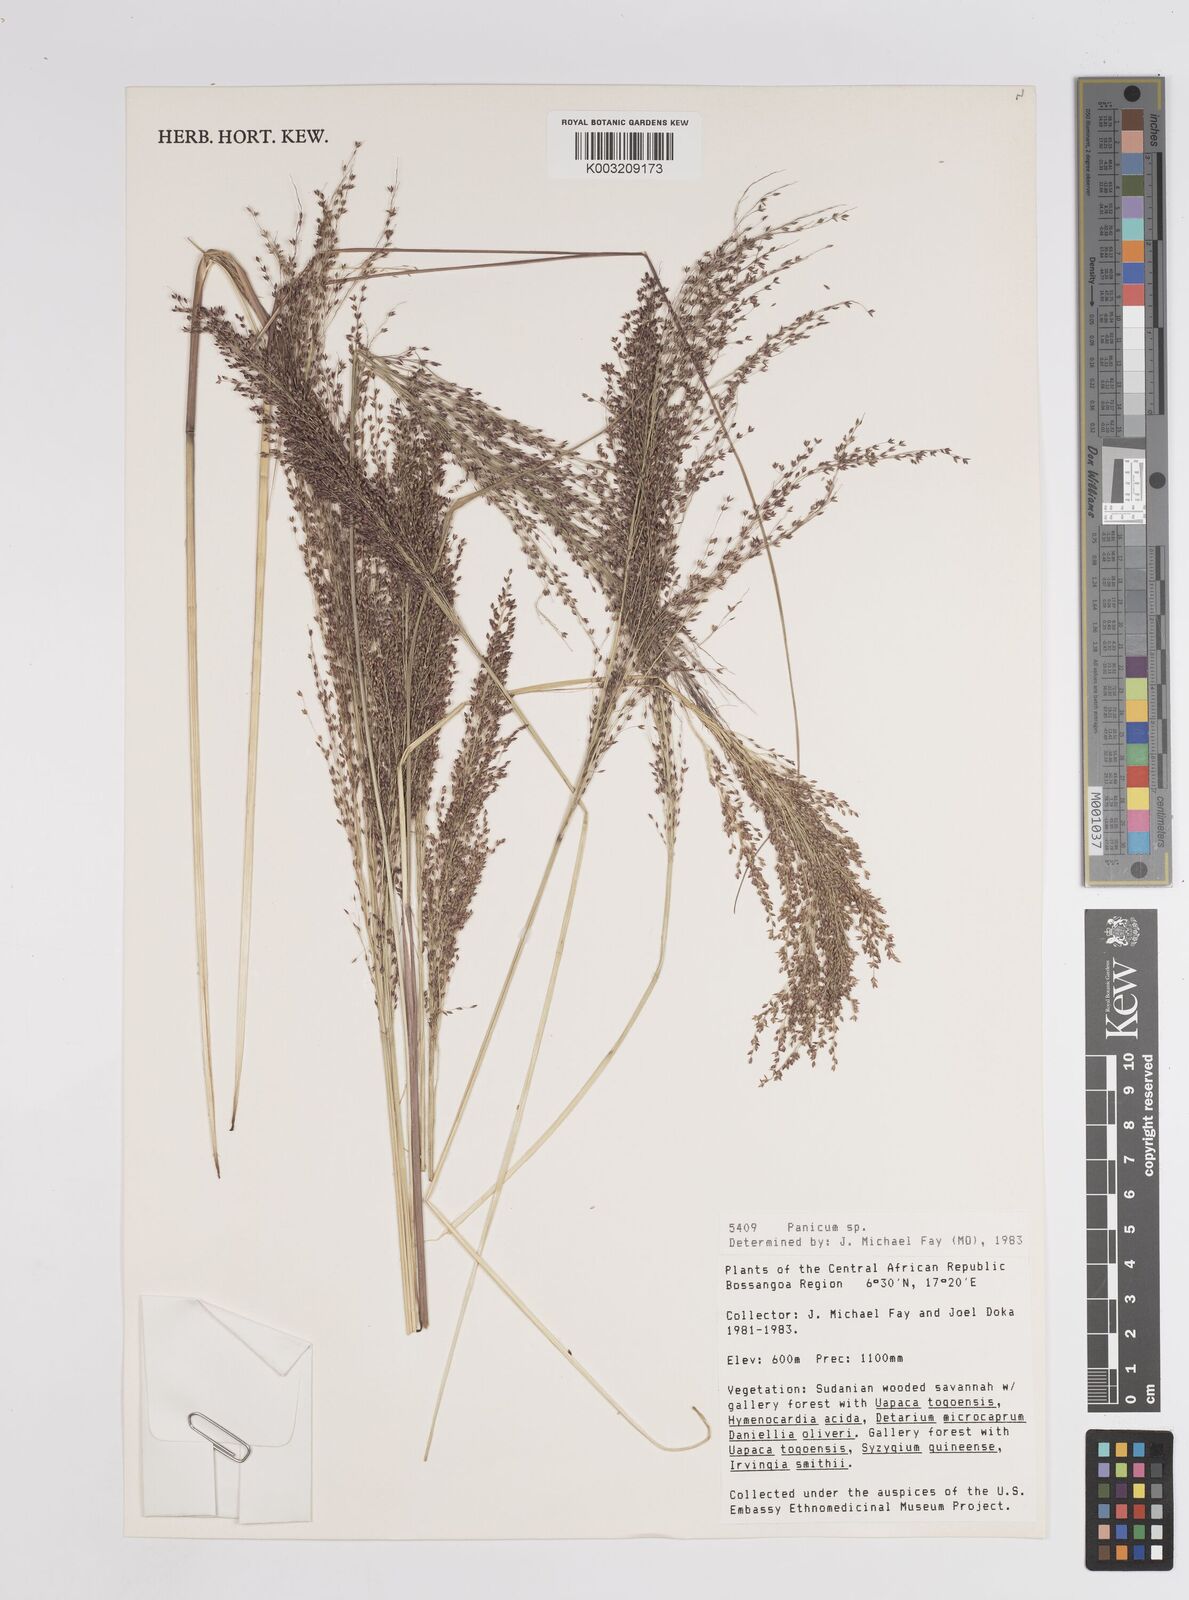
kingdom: Plantae
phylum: Tracheophyta
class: Liliopsida
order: Poales
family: Poaceae
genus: Panicum
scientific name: Panicum
